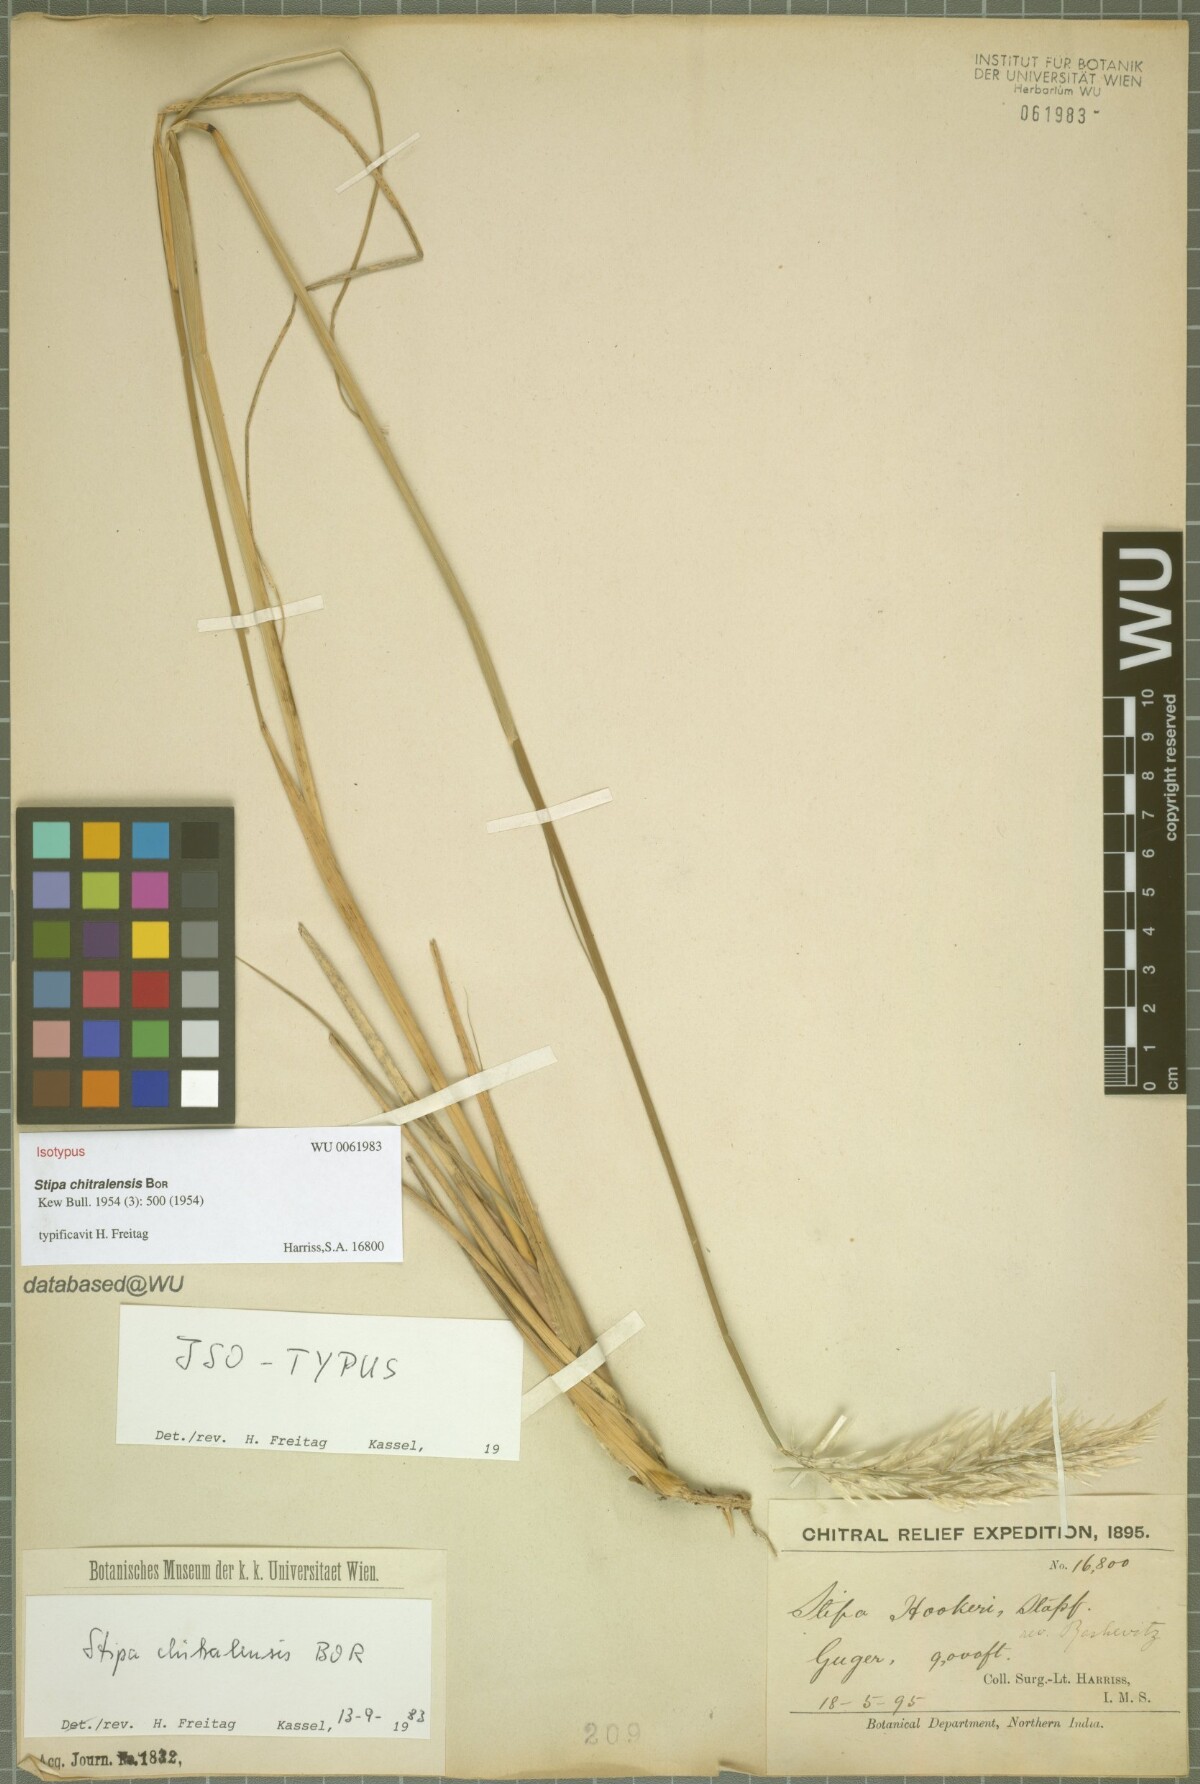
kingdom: Plantae
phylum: Tracheophyta
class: Liliopsida
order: Poales
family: Poaceae
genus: Neotrinia
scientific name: Neotrinia chitralensis
